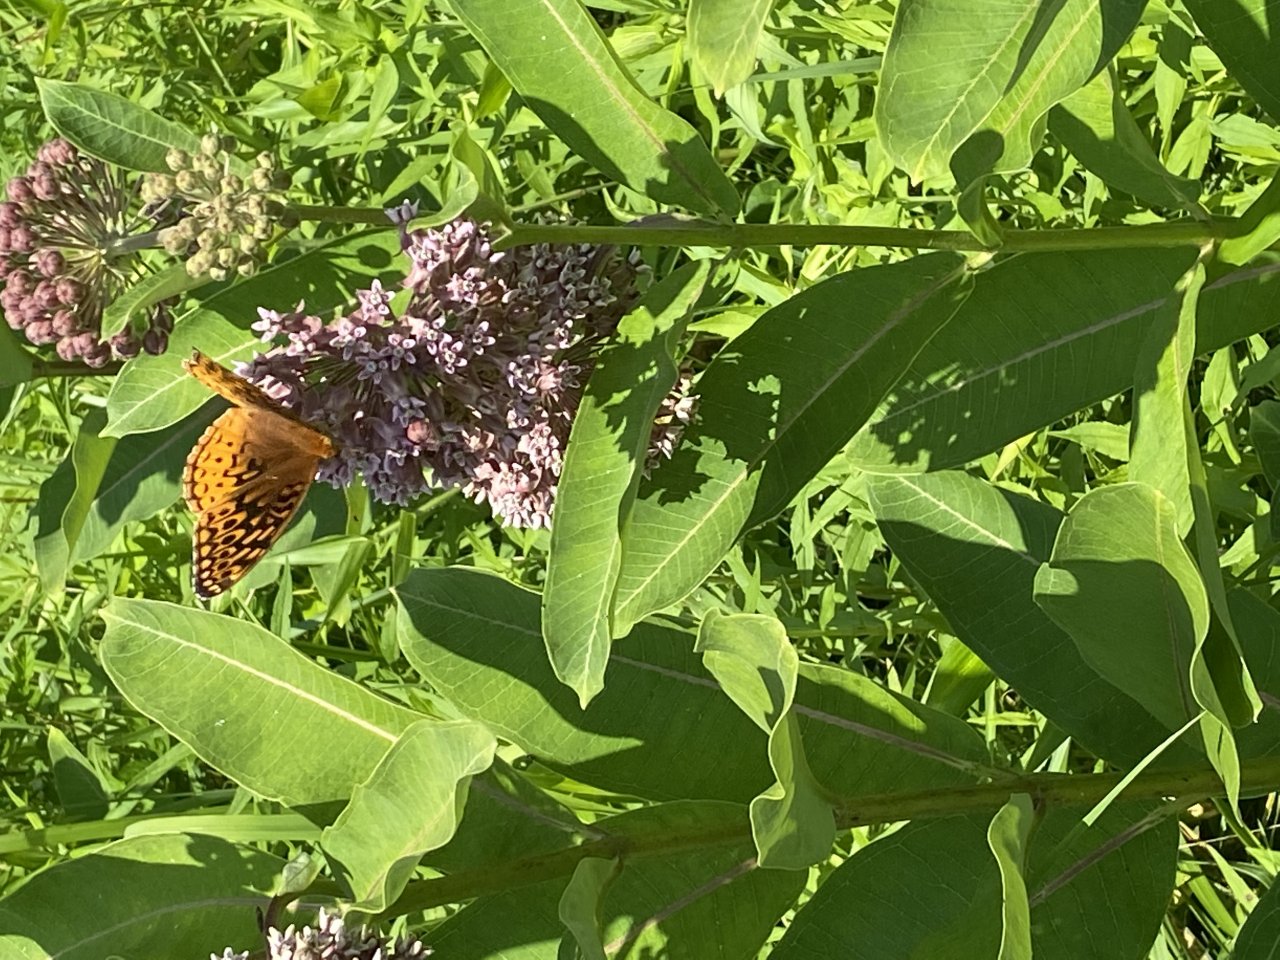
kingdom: Animalia
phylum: Arthropoda
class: Insecta
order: Lepidoptera
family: Nymphalidae
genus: Speyeria
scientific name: Speyeria cybele
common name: Great Spangled Fritillary
